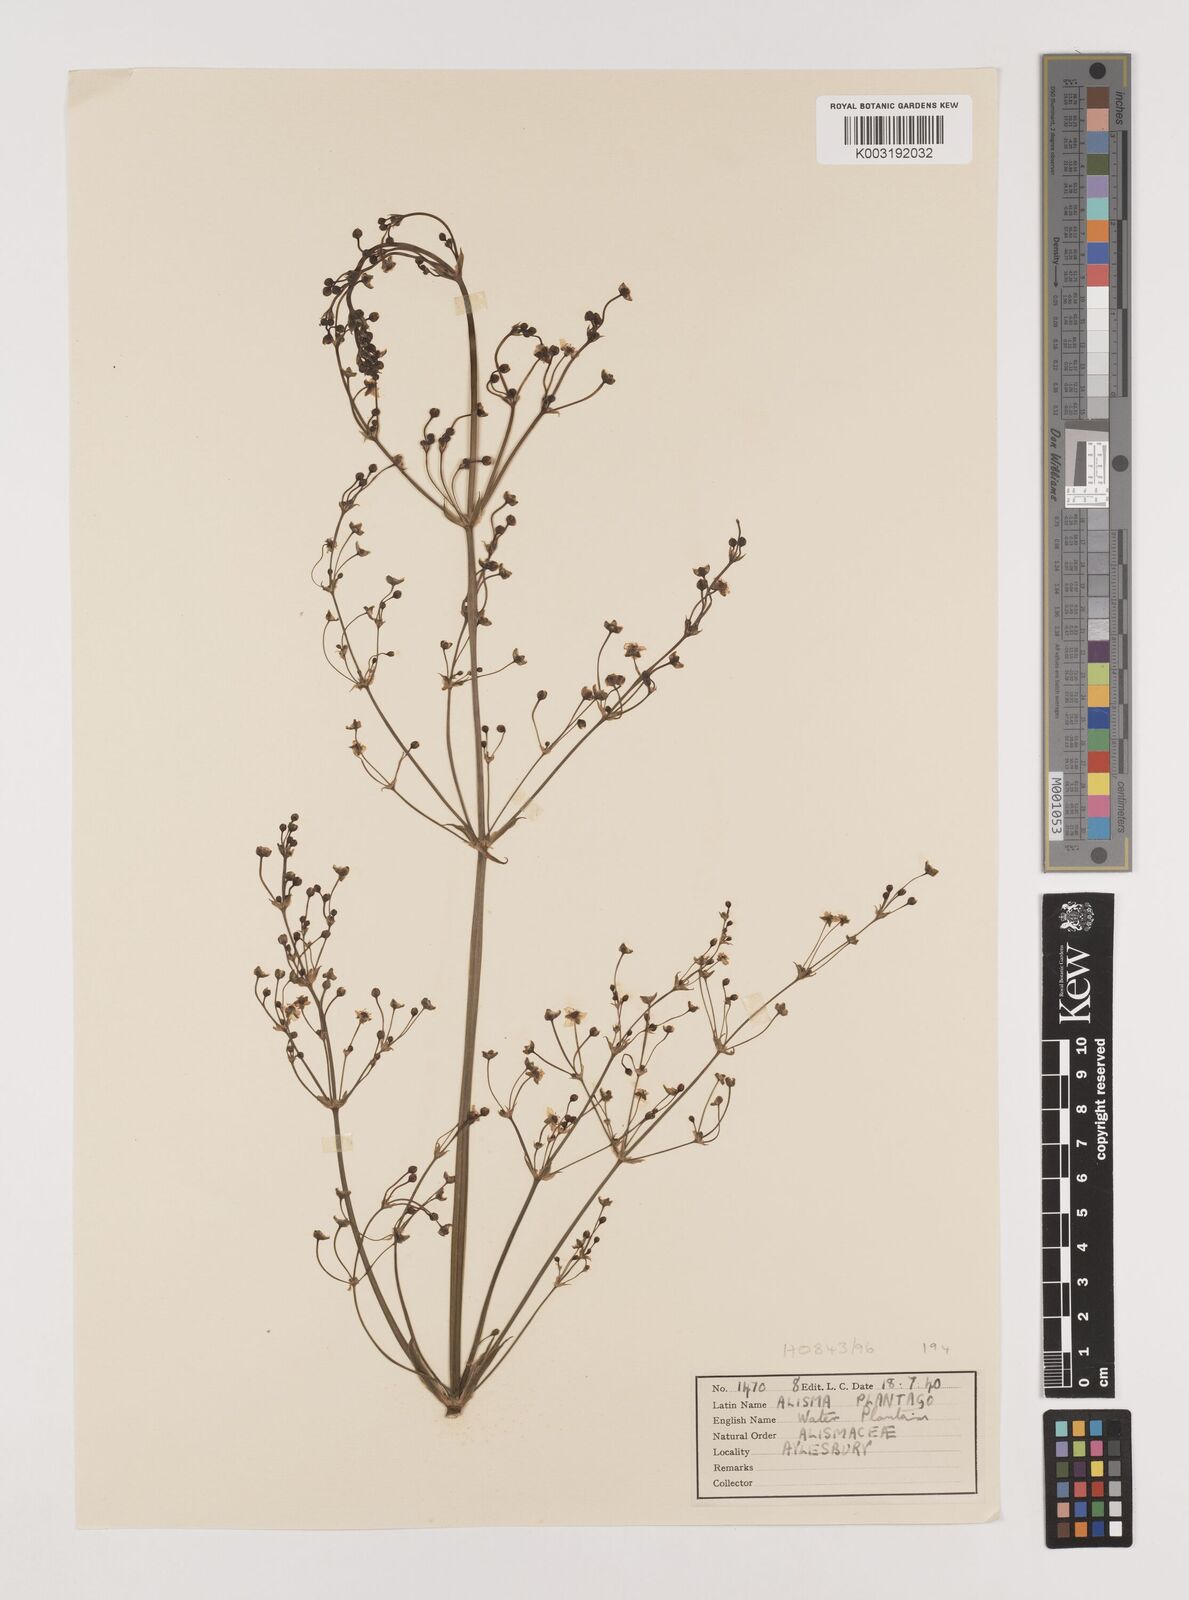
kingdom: Plantae
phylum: Tracheophyta
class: Liliopsida
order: Alismatales
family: Alismataceae
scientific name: Alismataceae
